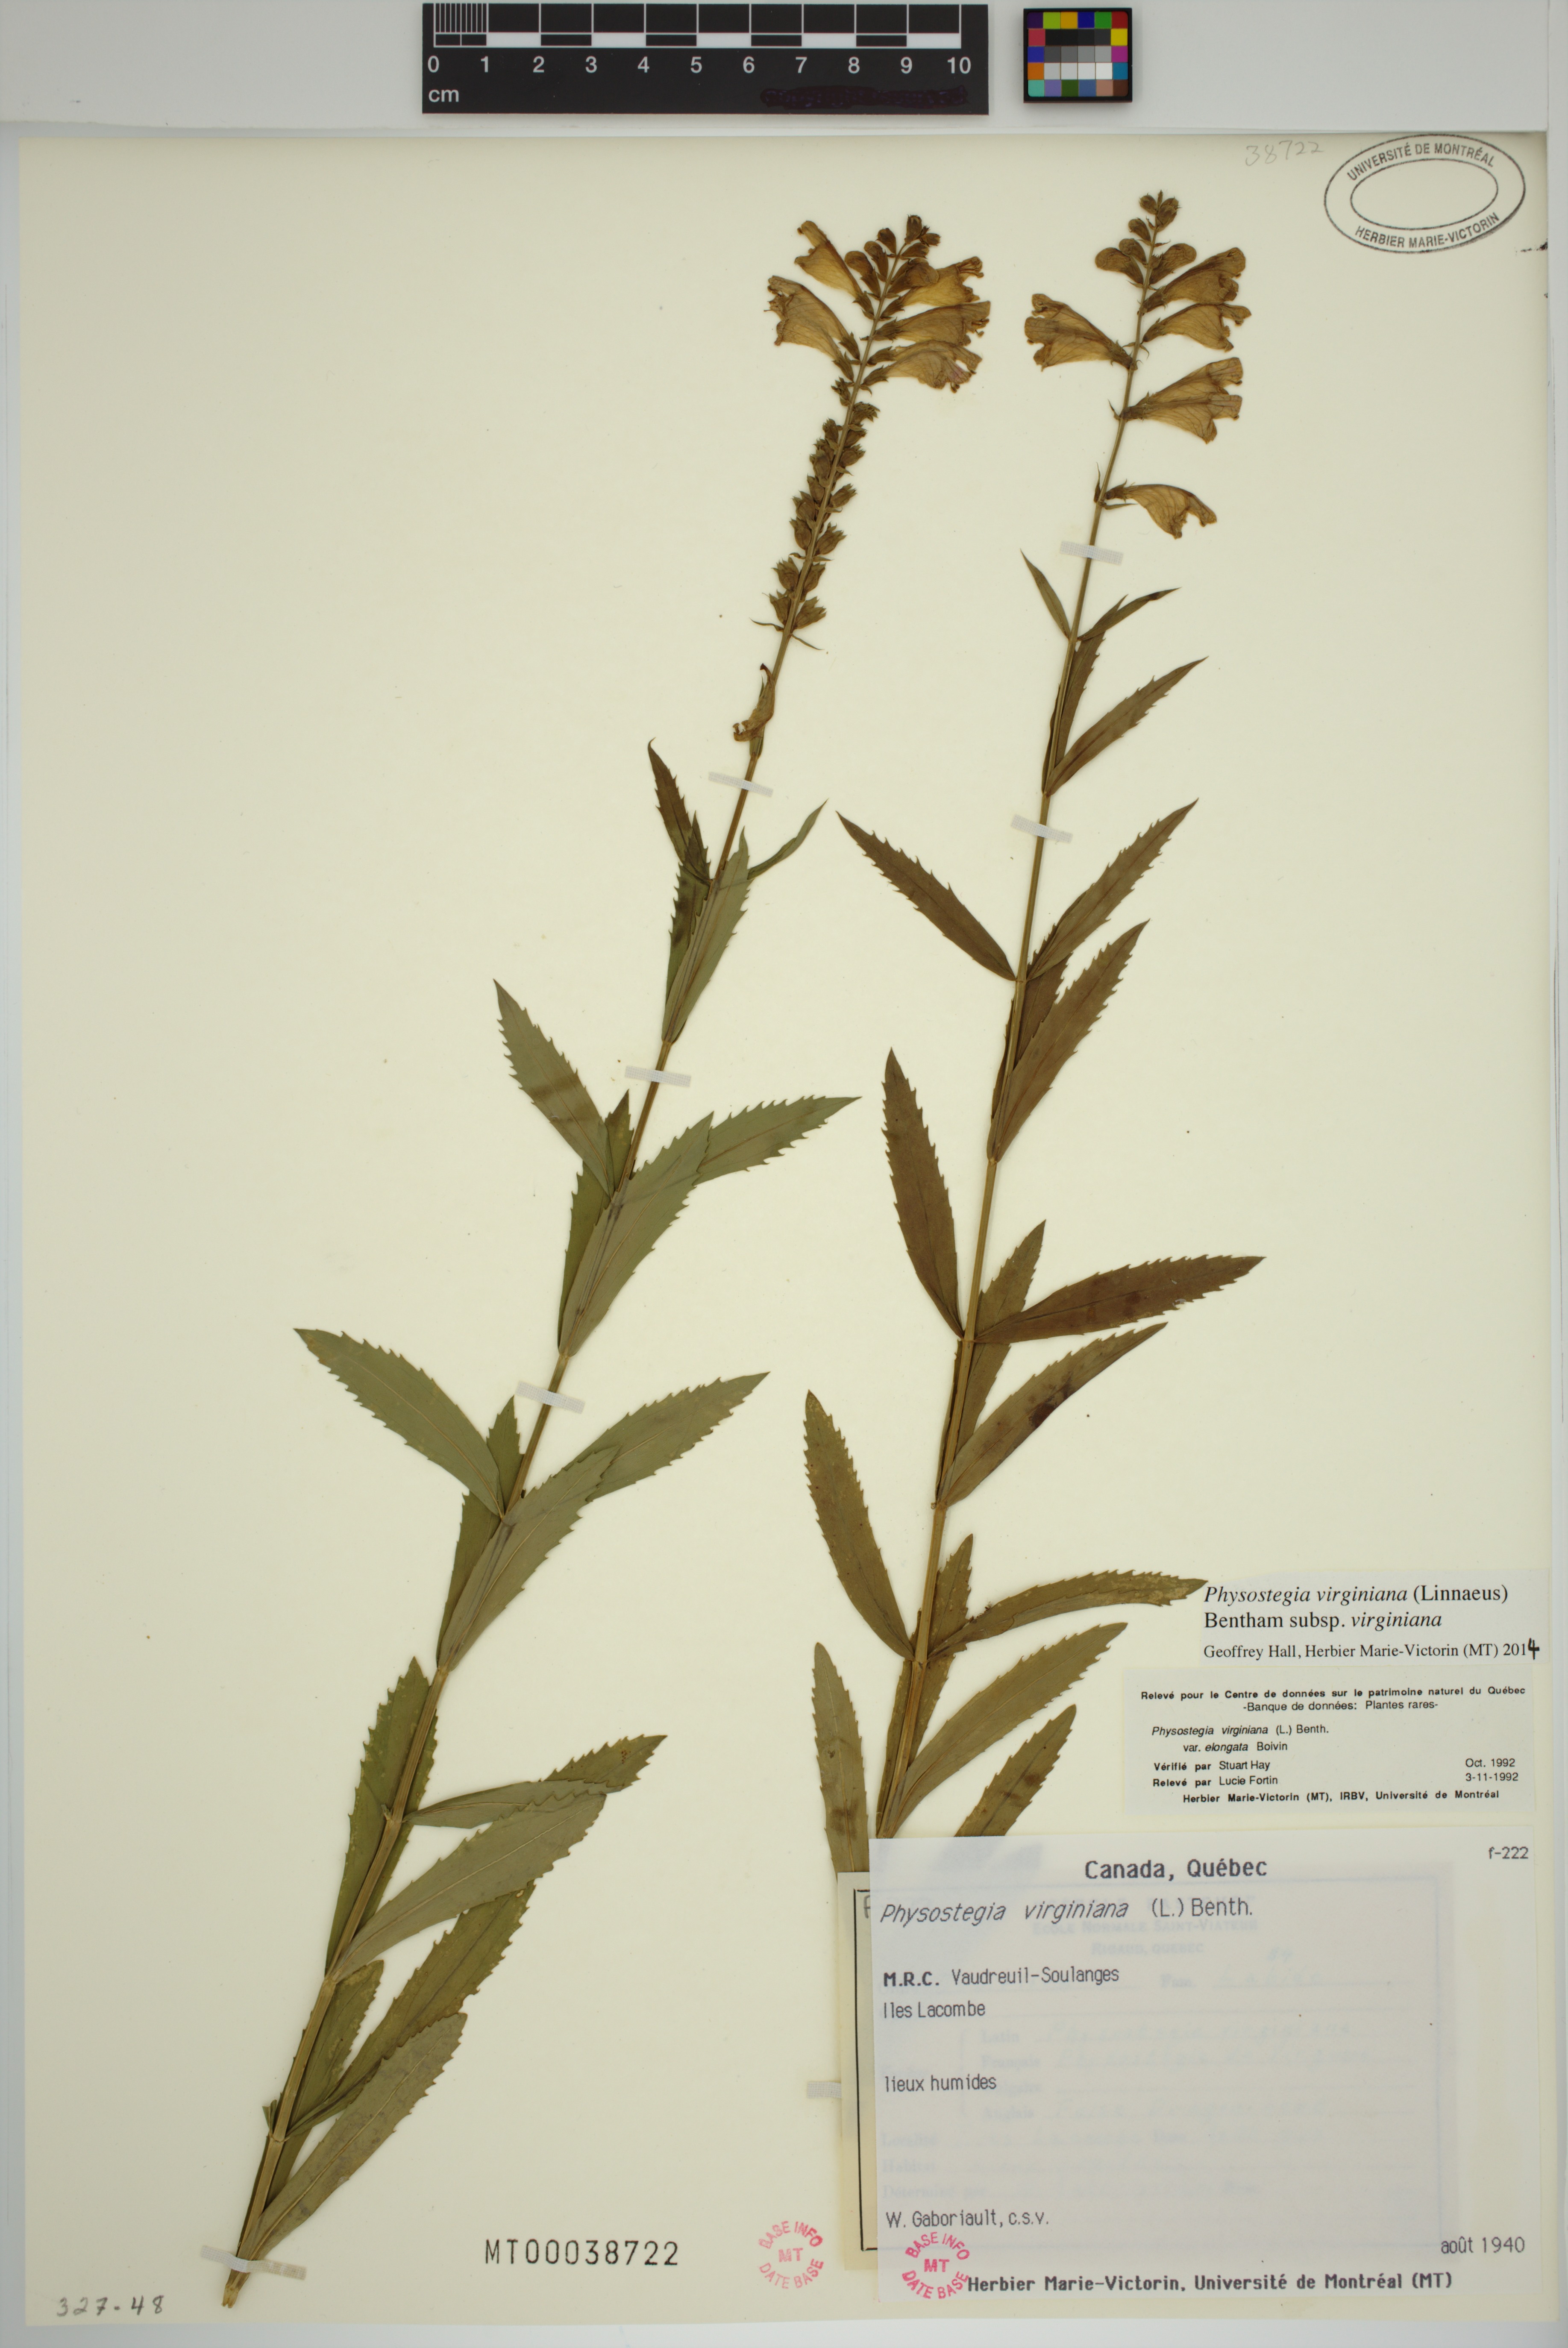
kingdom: Plantae
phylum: Tracheophyta
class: Magnoliopsida
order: Lamiales
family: Lamiaceae
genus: Physostegia
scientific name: Physostegia virginiana
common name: Obedient-plant
